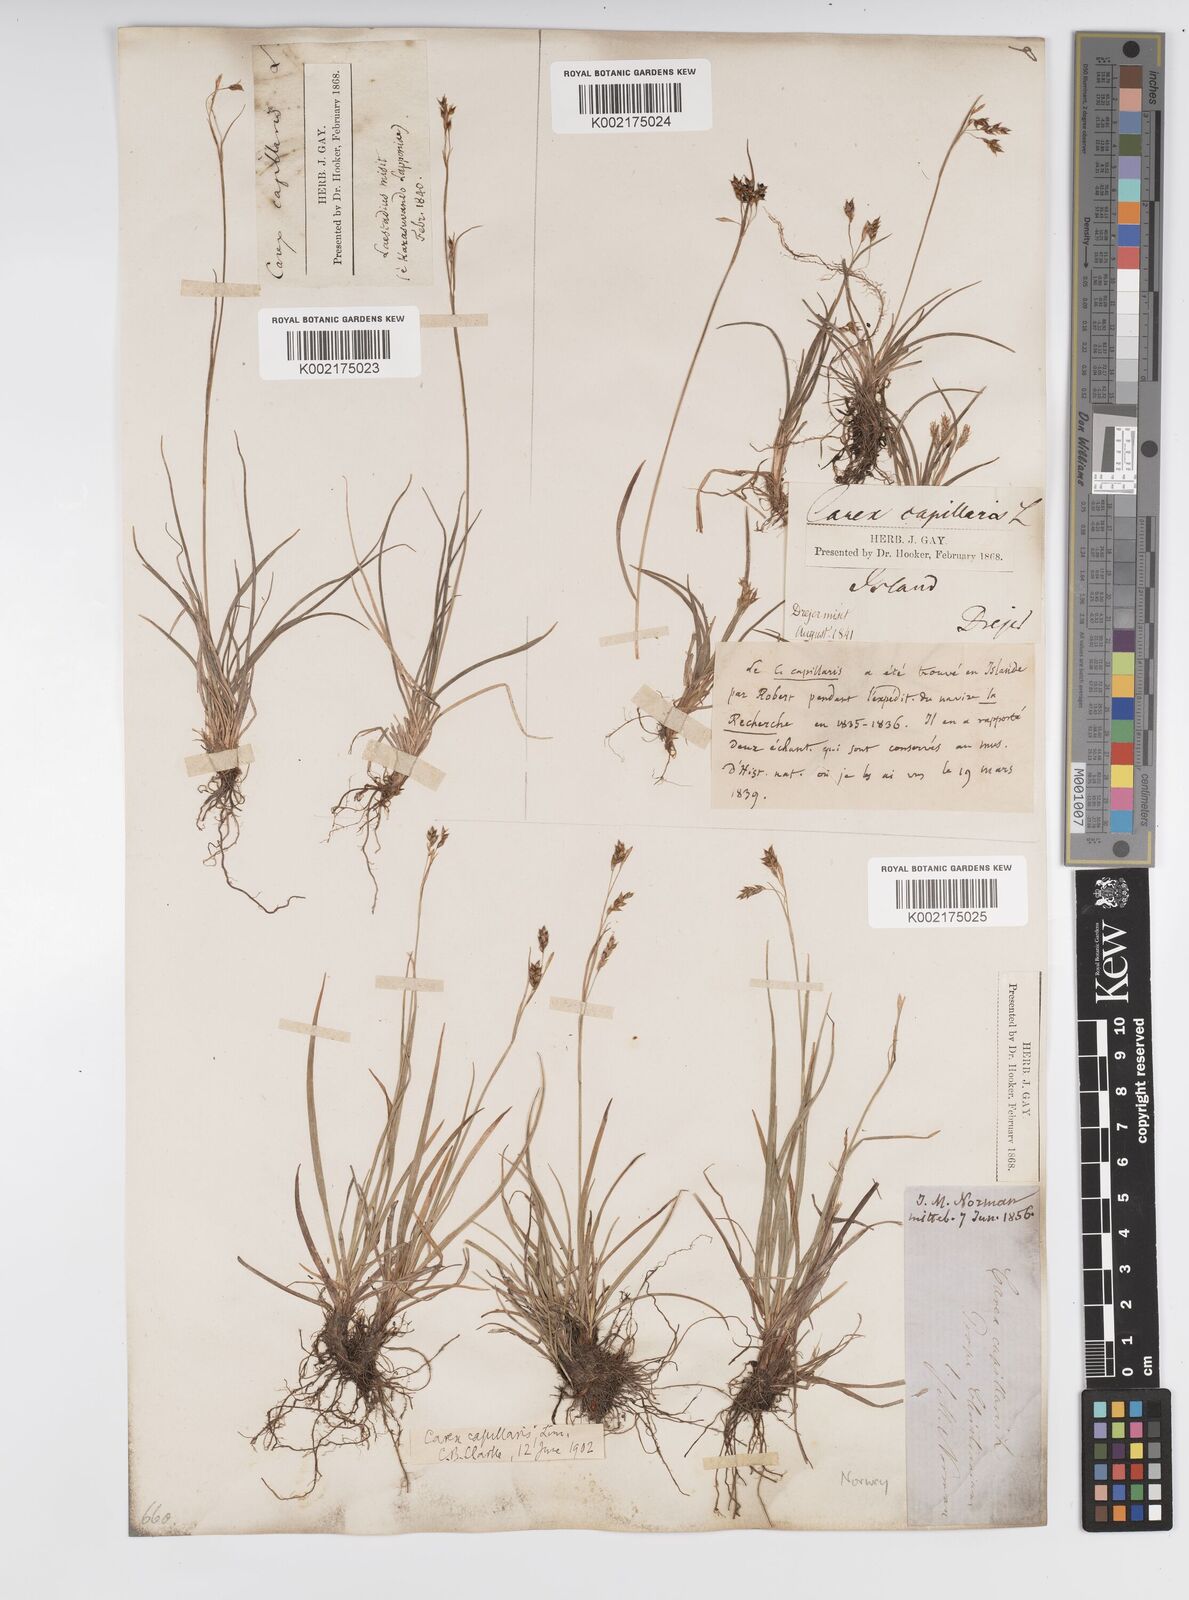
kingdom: Plantae
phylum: Tracheophyta
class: Liliopsida
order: Poales
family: Cyperaceae
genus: Carex
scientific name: Carex capillaris
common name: Hair sedge
